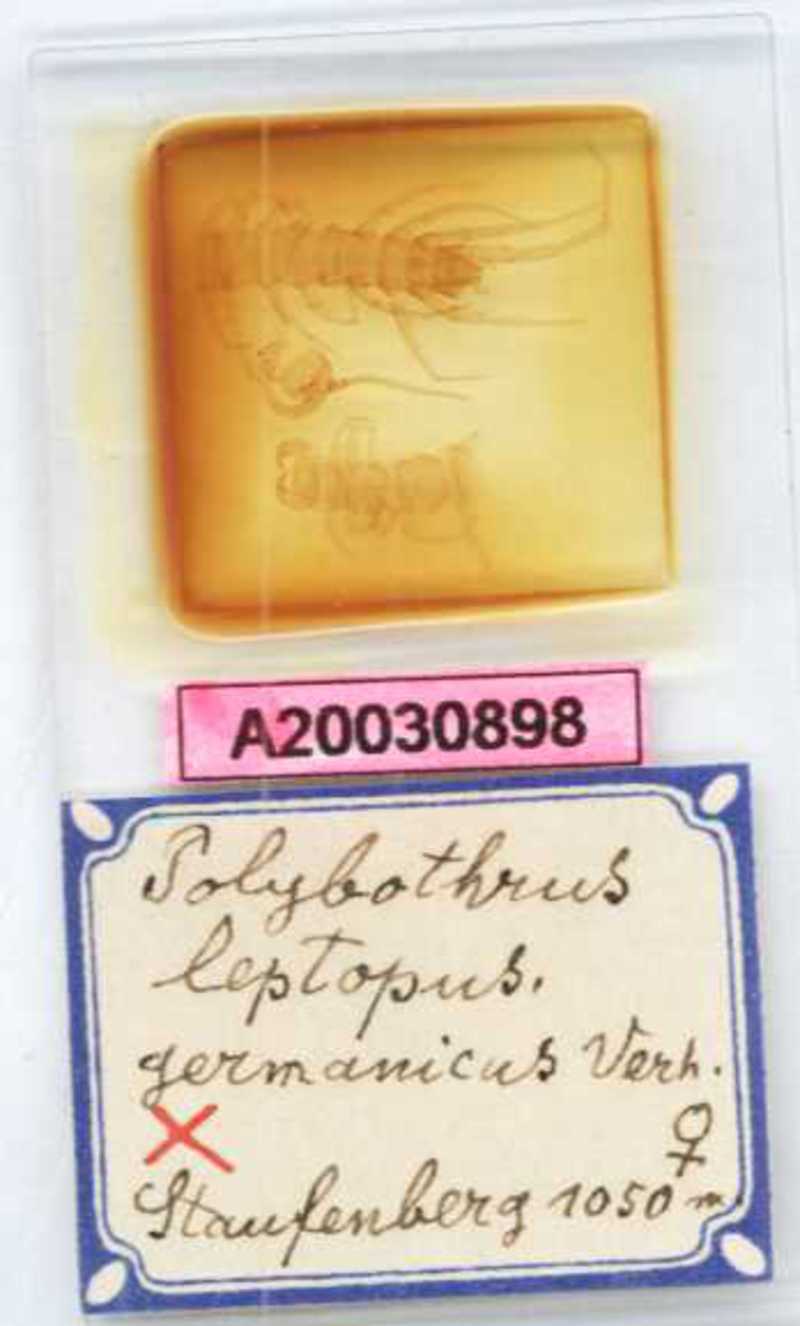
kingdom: Animalia
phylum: Arthropoda
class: Chilopoda
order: Lithobiomorpha
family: Lithobiidae
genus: Polybothrus
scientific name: Polybothrus leptopus
